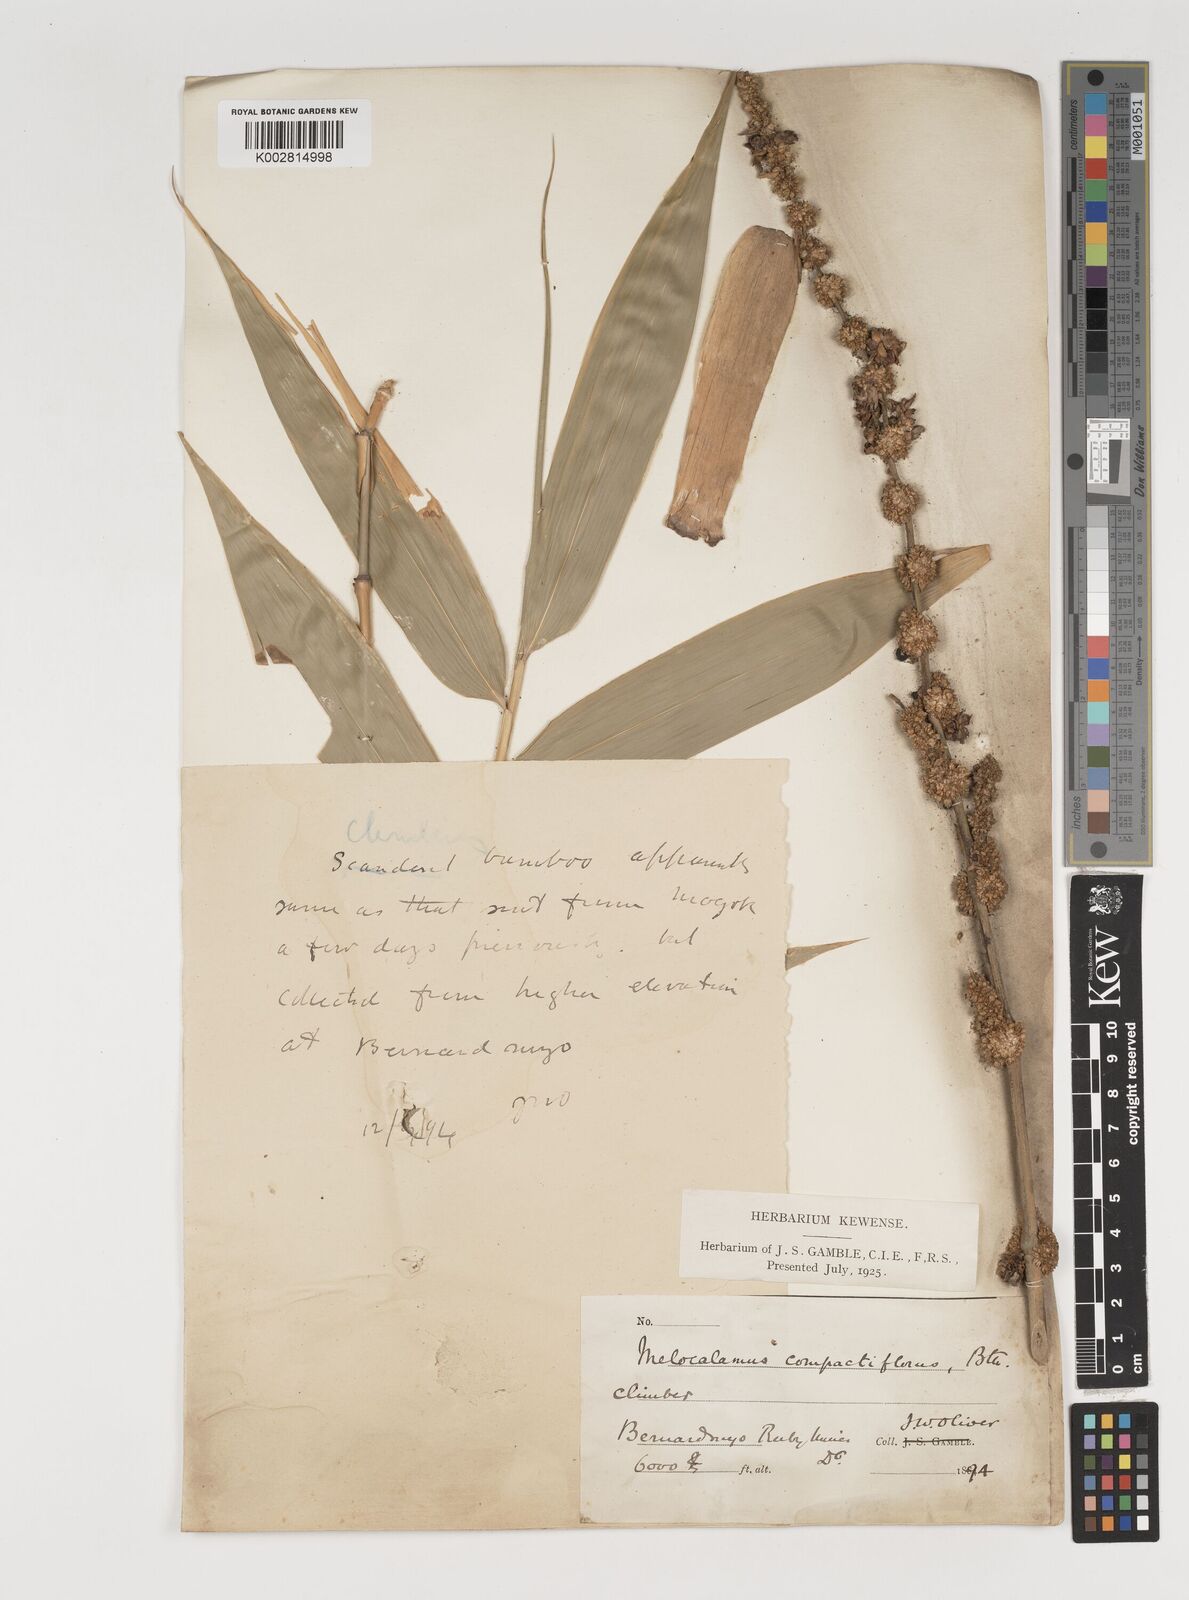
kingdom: Plantae
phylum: Tracheophyta
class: Liliopsida
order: Poales
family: Poaceae
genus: Melocalamus
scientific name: Melocalamus compactiflorus
